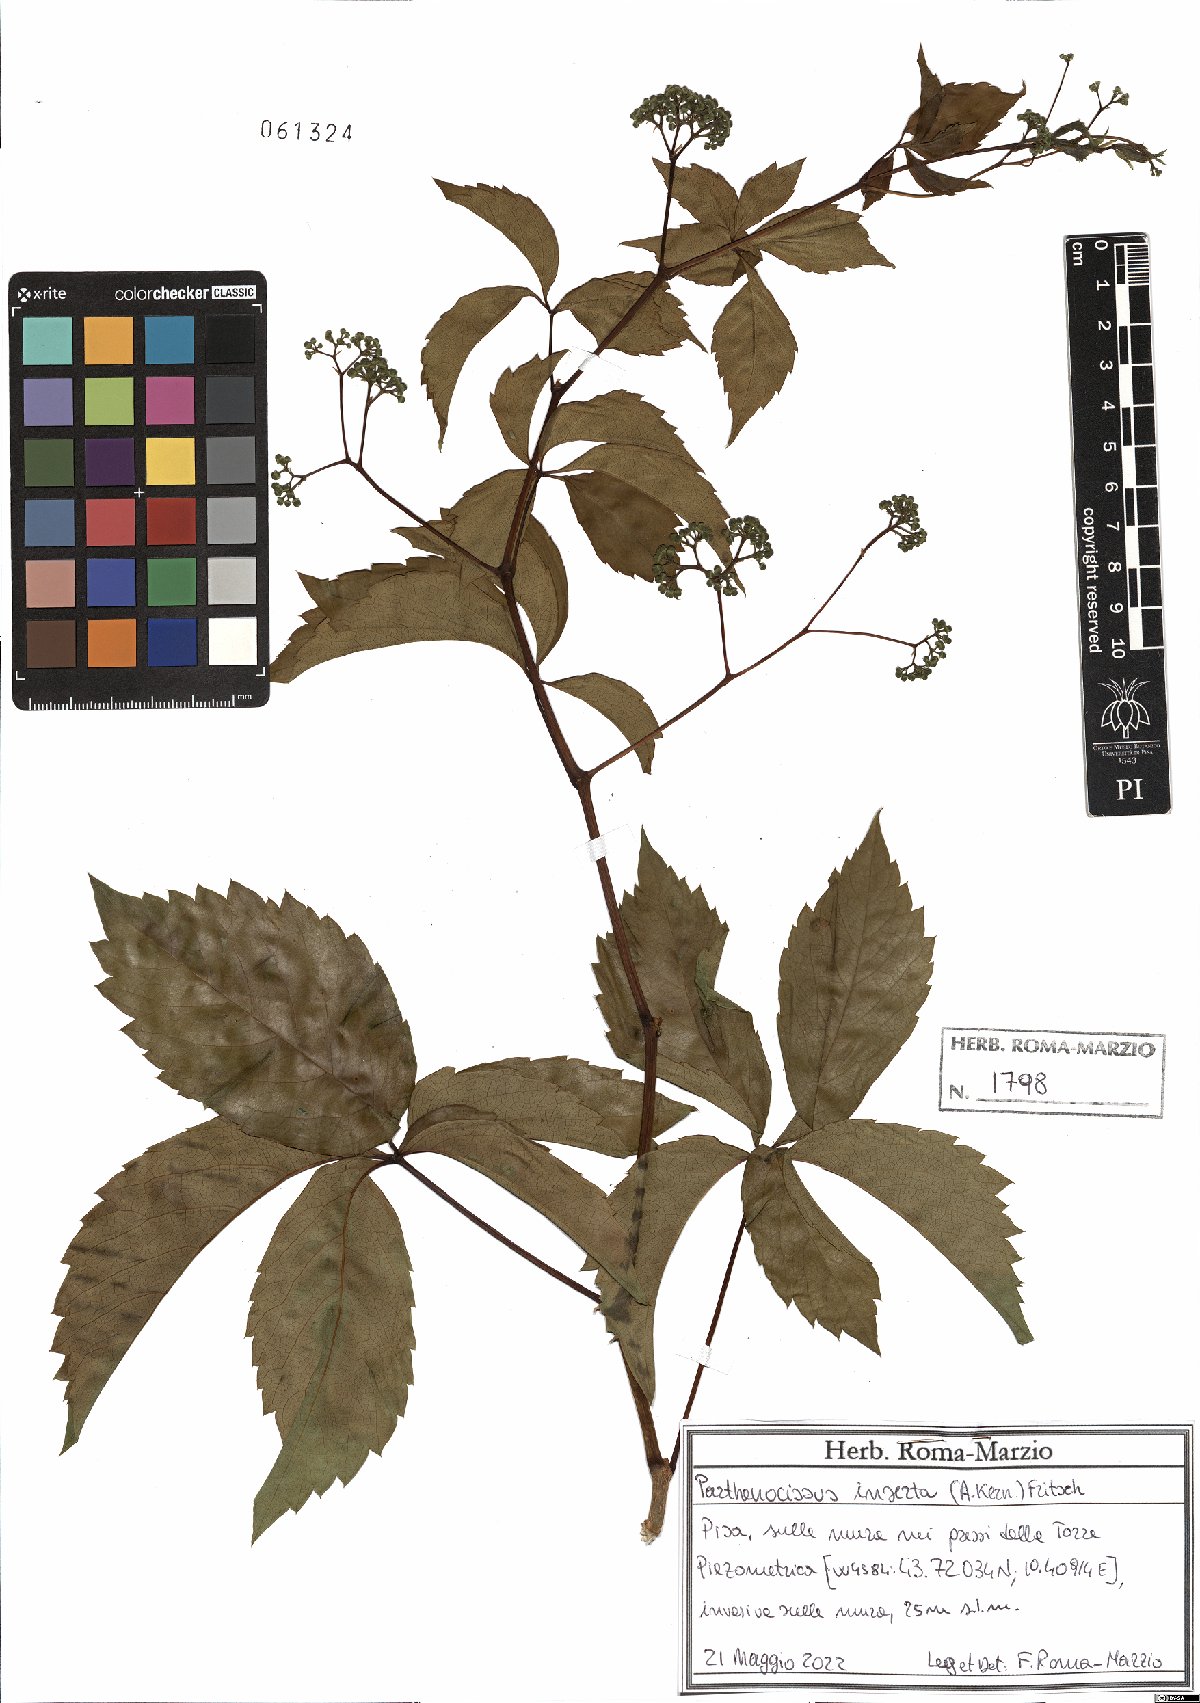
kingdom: Plantae
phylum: Tracheophyta
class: Magnoliopsida
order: Vitales
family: Vitaceae
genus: Parthenocissus
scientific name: Parthenocissus inserta
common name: False virginia-creeper
